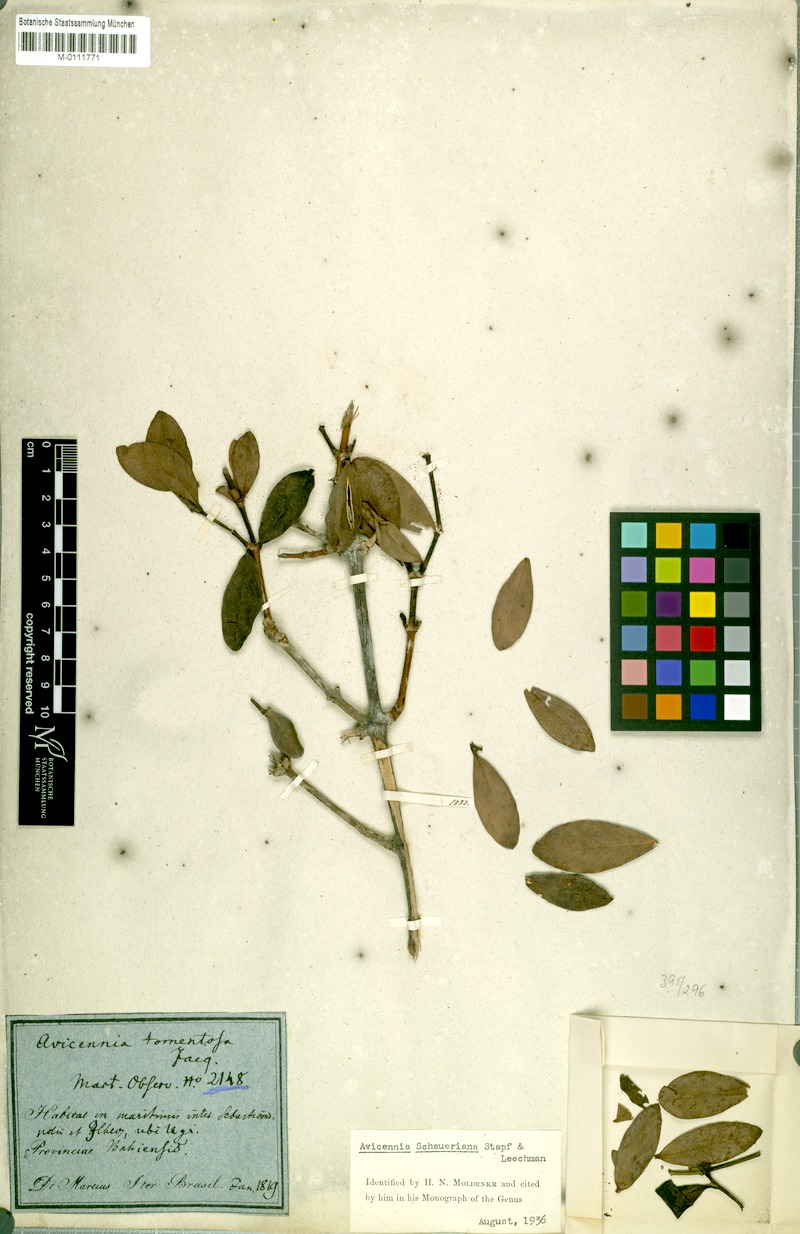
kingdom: Plantae
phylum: Tracheophyta
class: Magnoliopsida
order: Lamiales
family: Acanthaceae
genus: Avicennia
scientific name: Avicennia schaueriana
